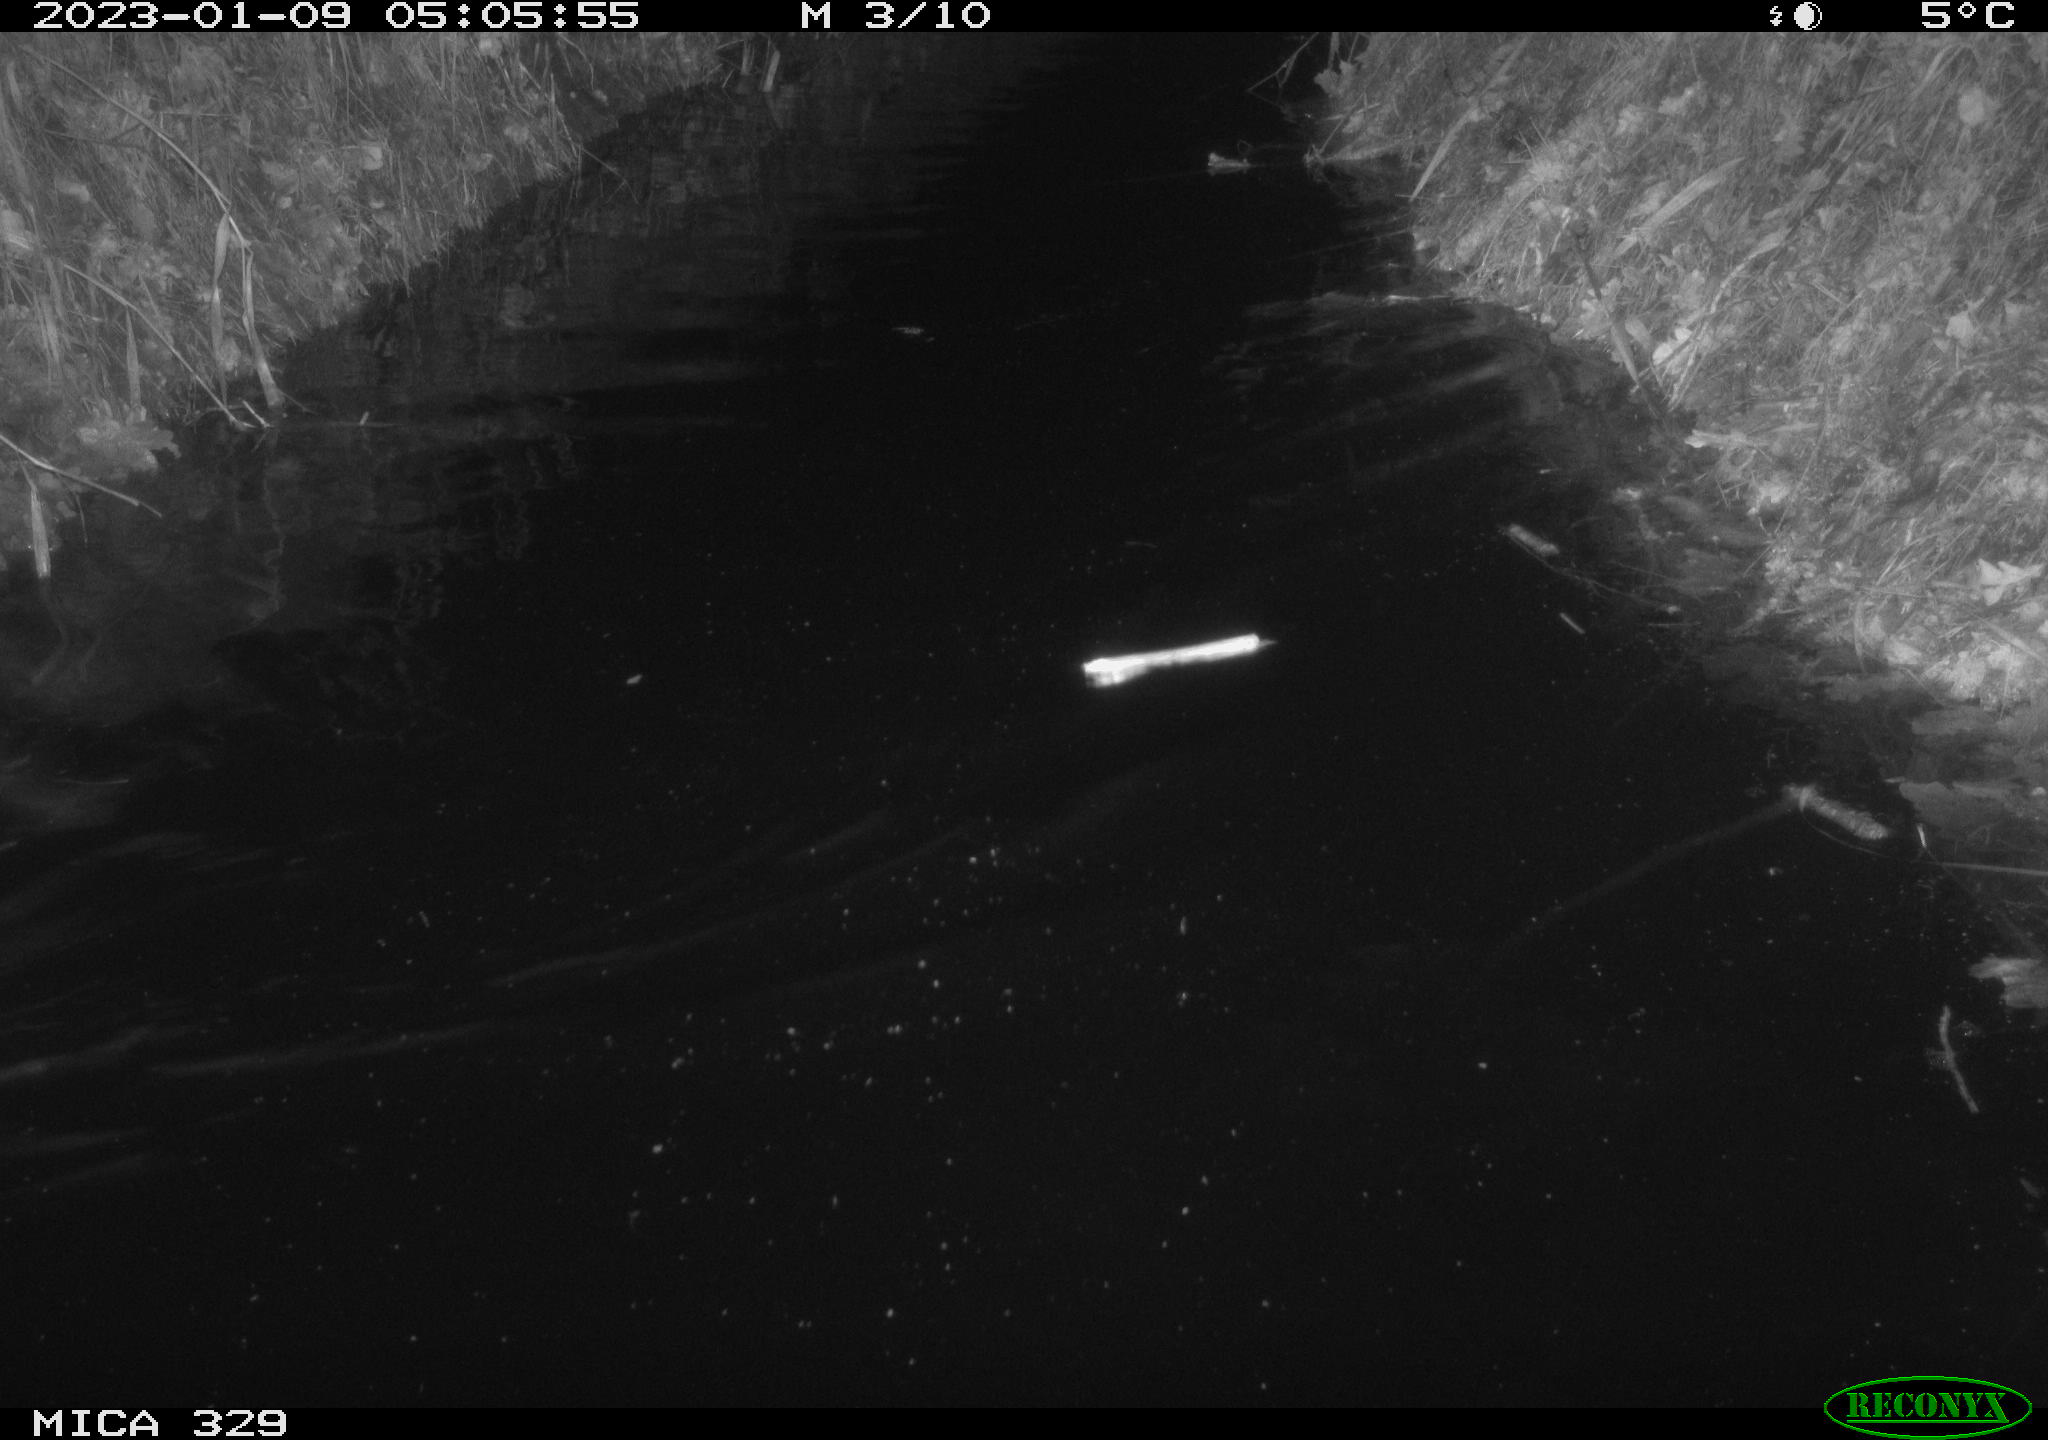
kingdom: Animalia
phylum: Chordata
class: Mammalia
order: Rodentia
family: Cricetidae
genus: Ondatra
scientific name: Ondatra zibethicus
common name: Muskrat
